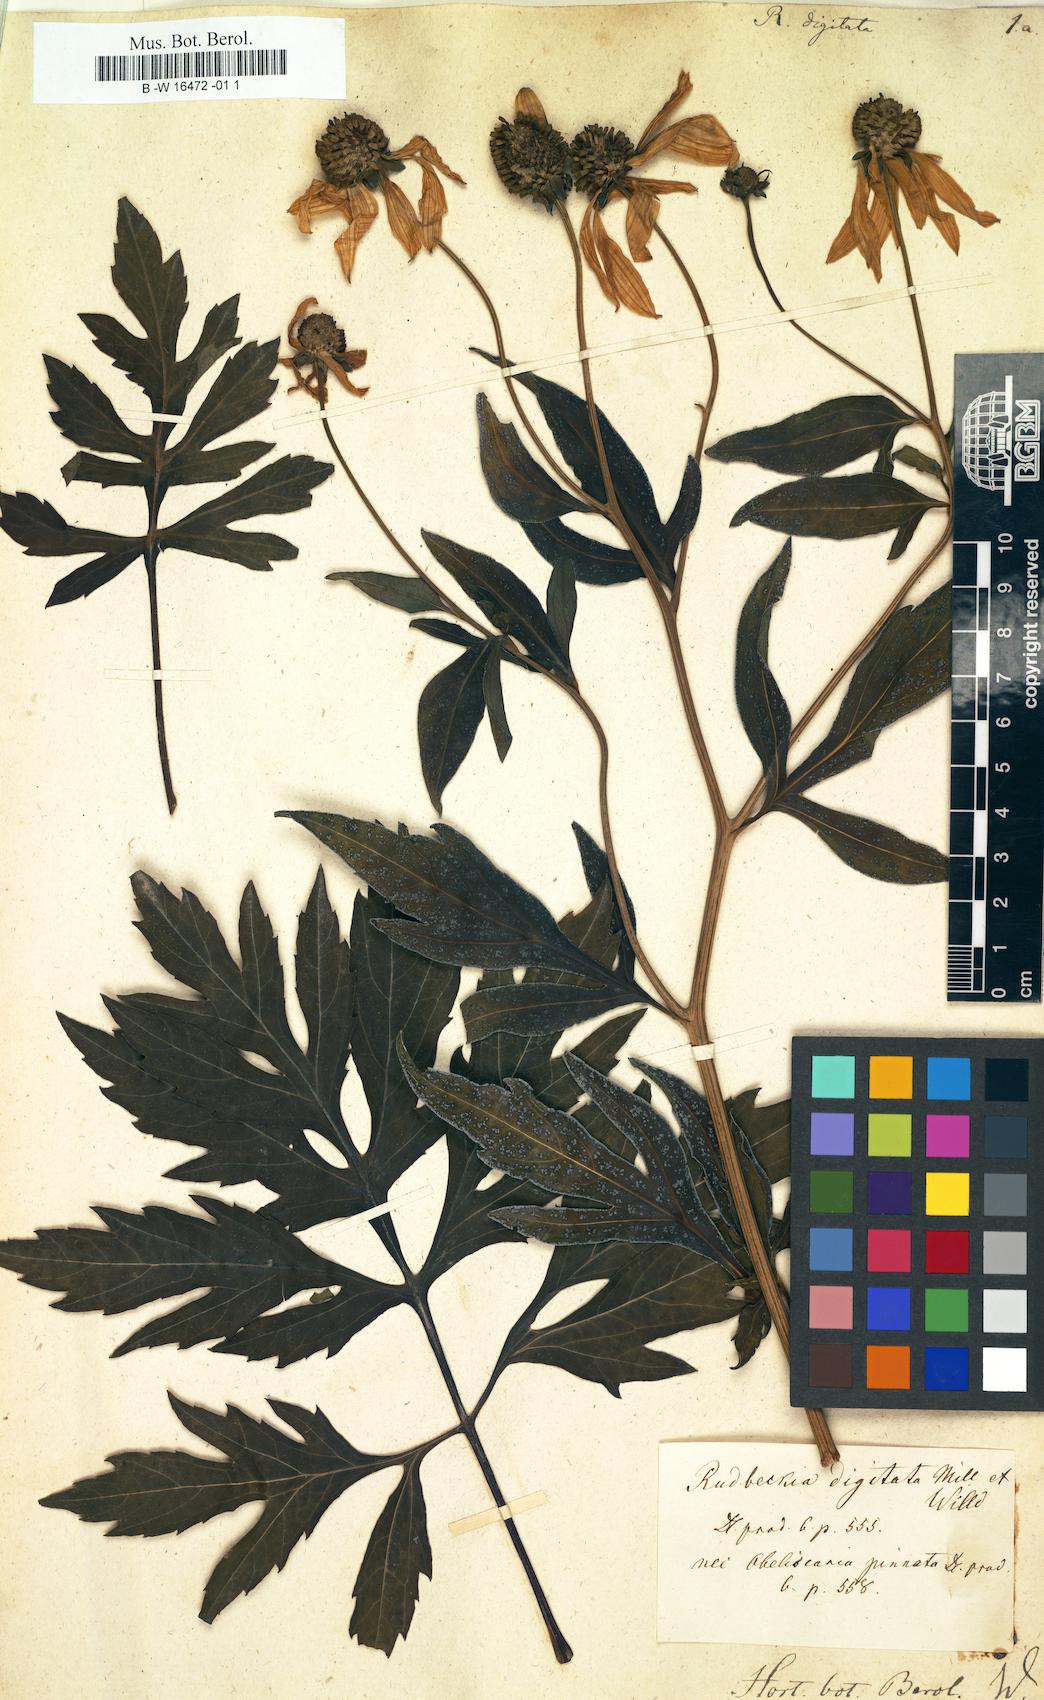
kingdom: Plantae
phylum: Tracheophyta
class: Magnoliopsida
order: Asterales
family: Asteraceae
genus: Rudbeckia
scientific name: Rudbeckia laciniata
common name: Coneflower
